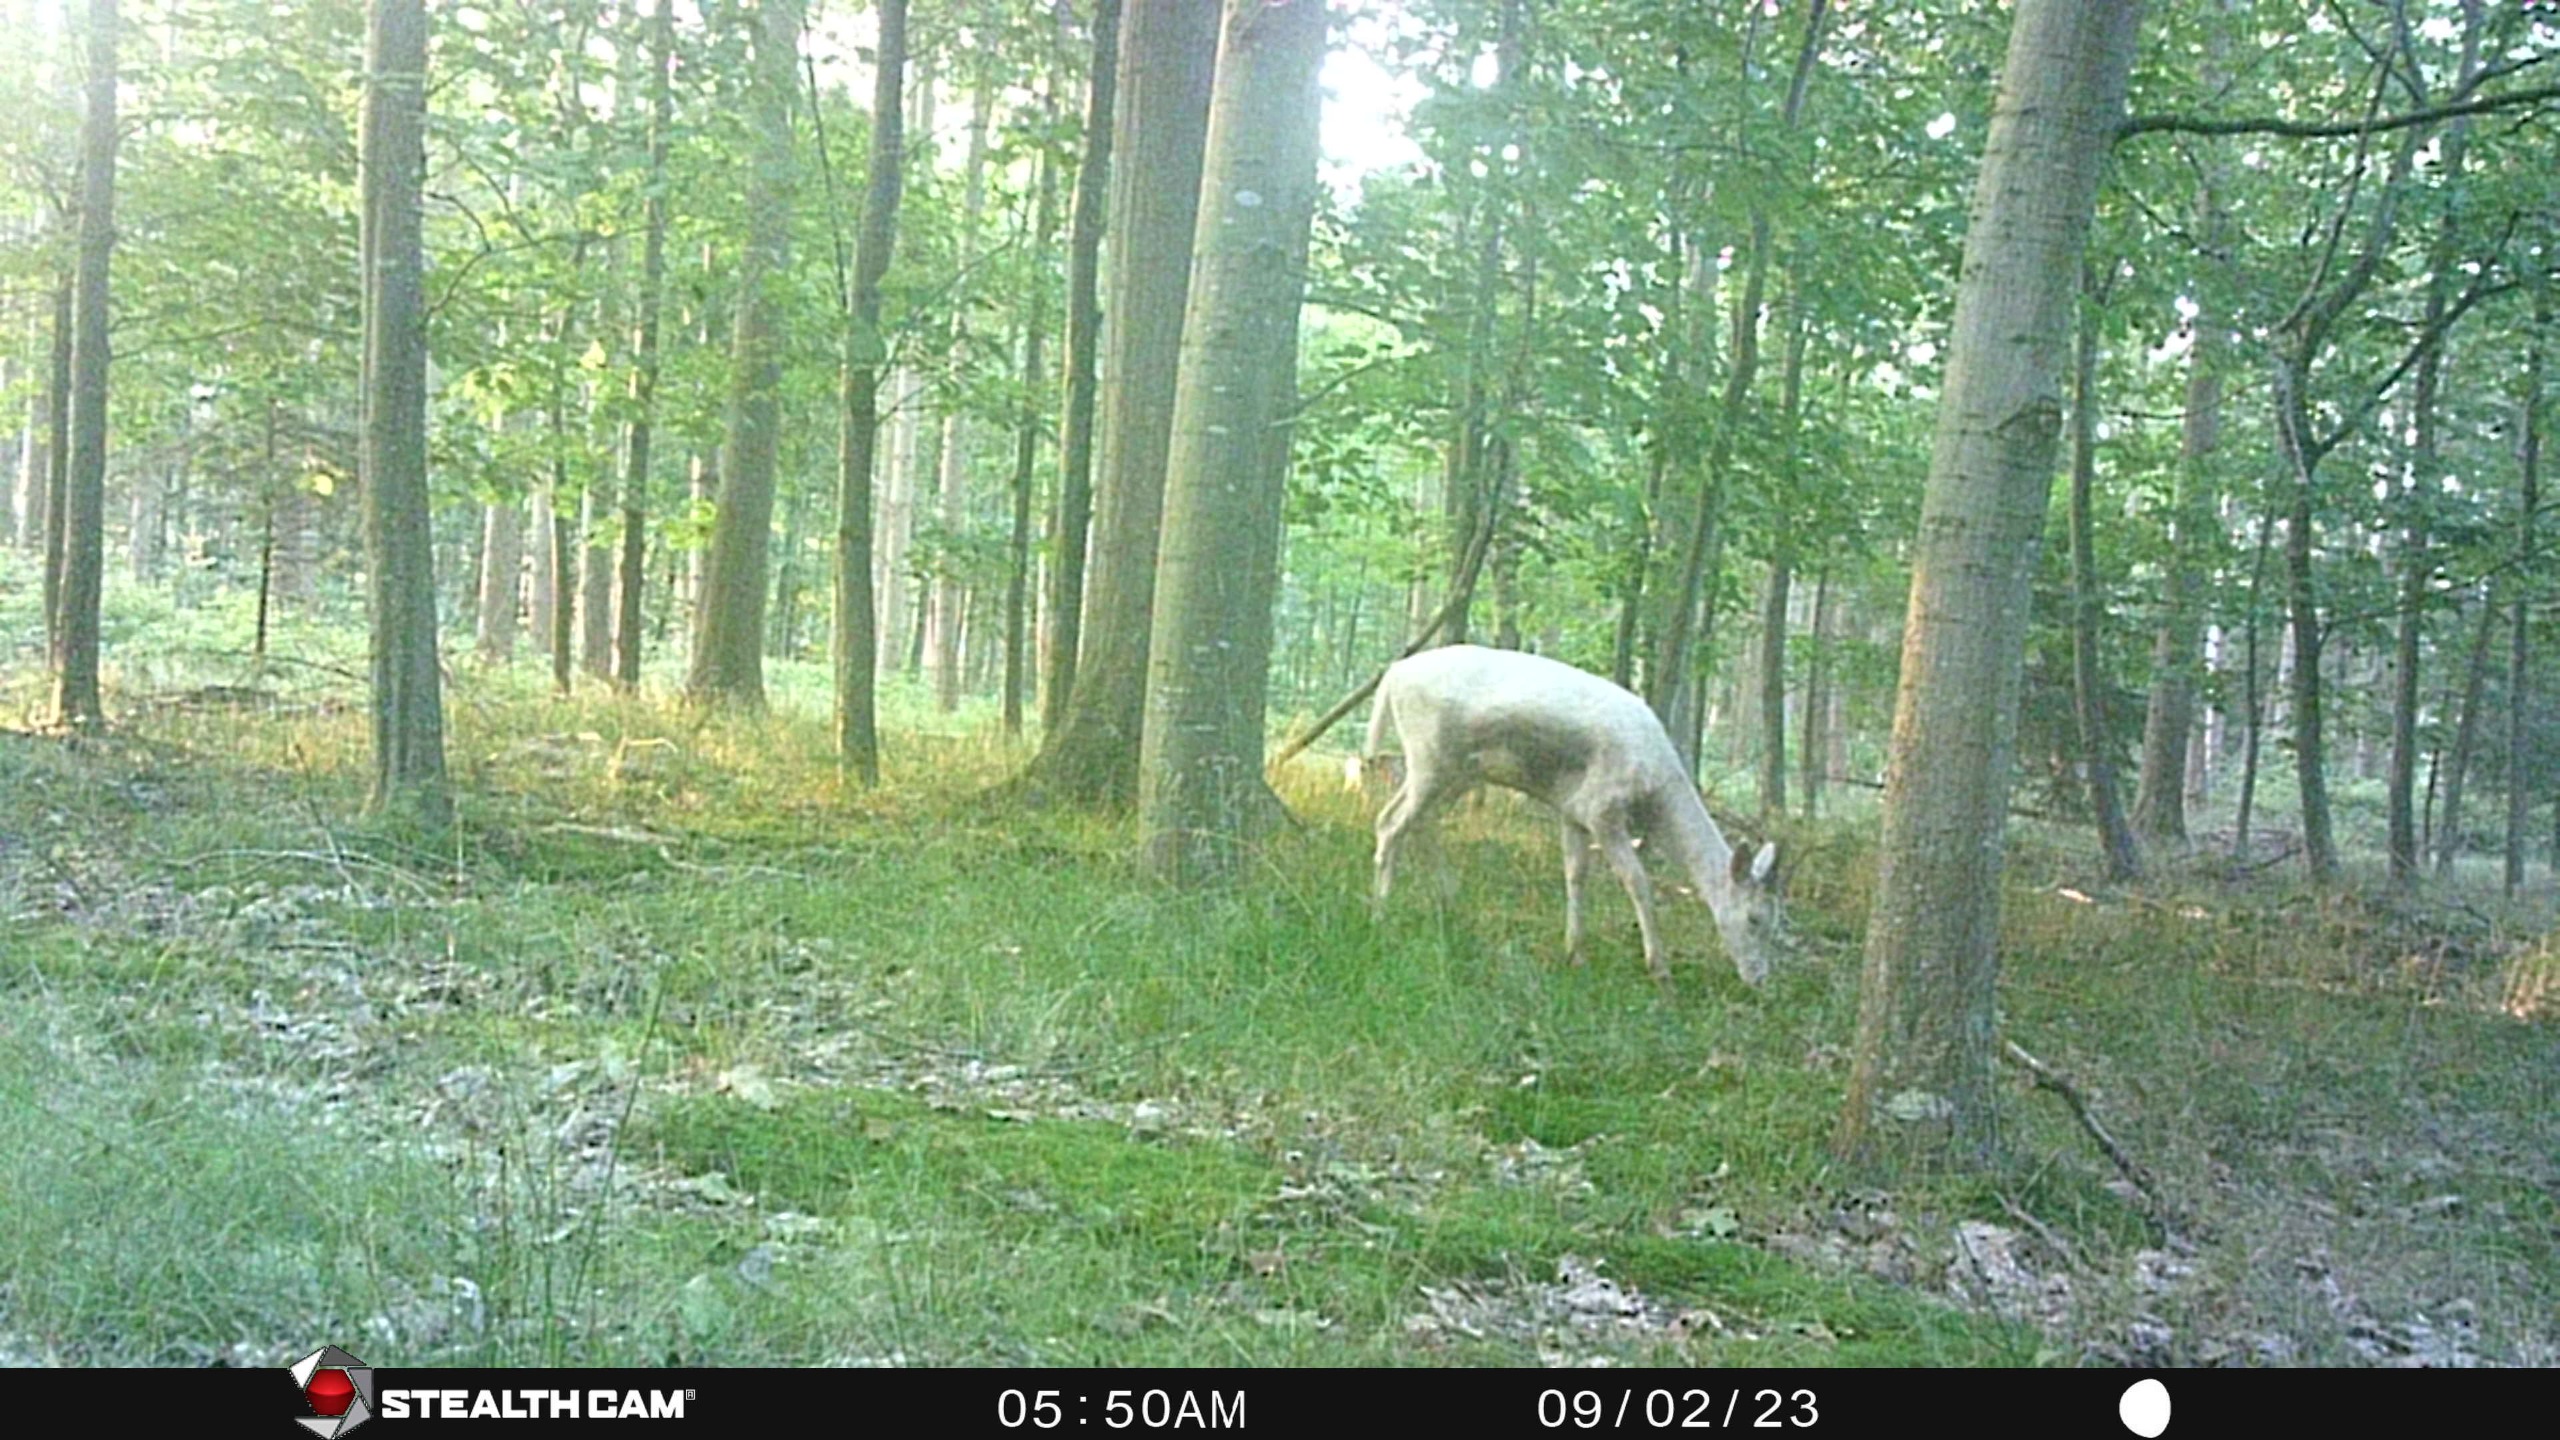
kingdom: Animalia
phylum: Chordata
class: Mammalia
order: Artiodactyla
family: Cervidae
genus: Dama
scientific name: Dama dama
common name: Dådyr
